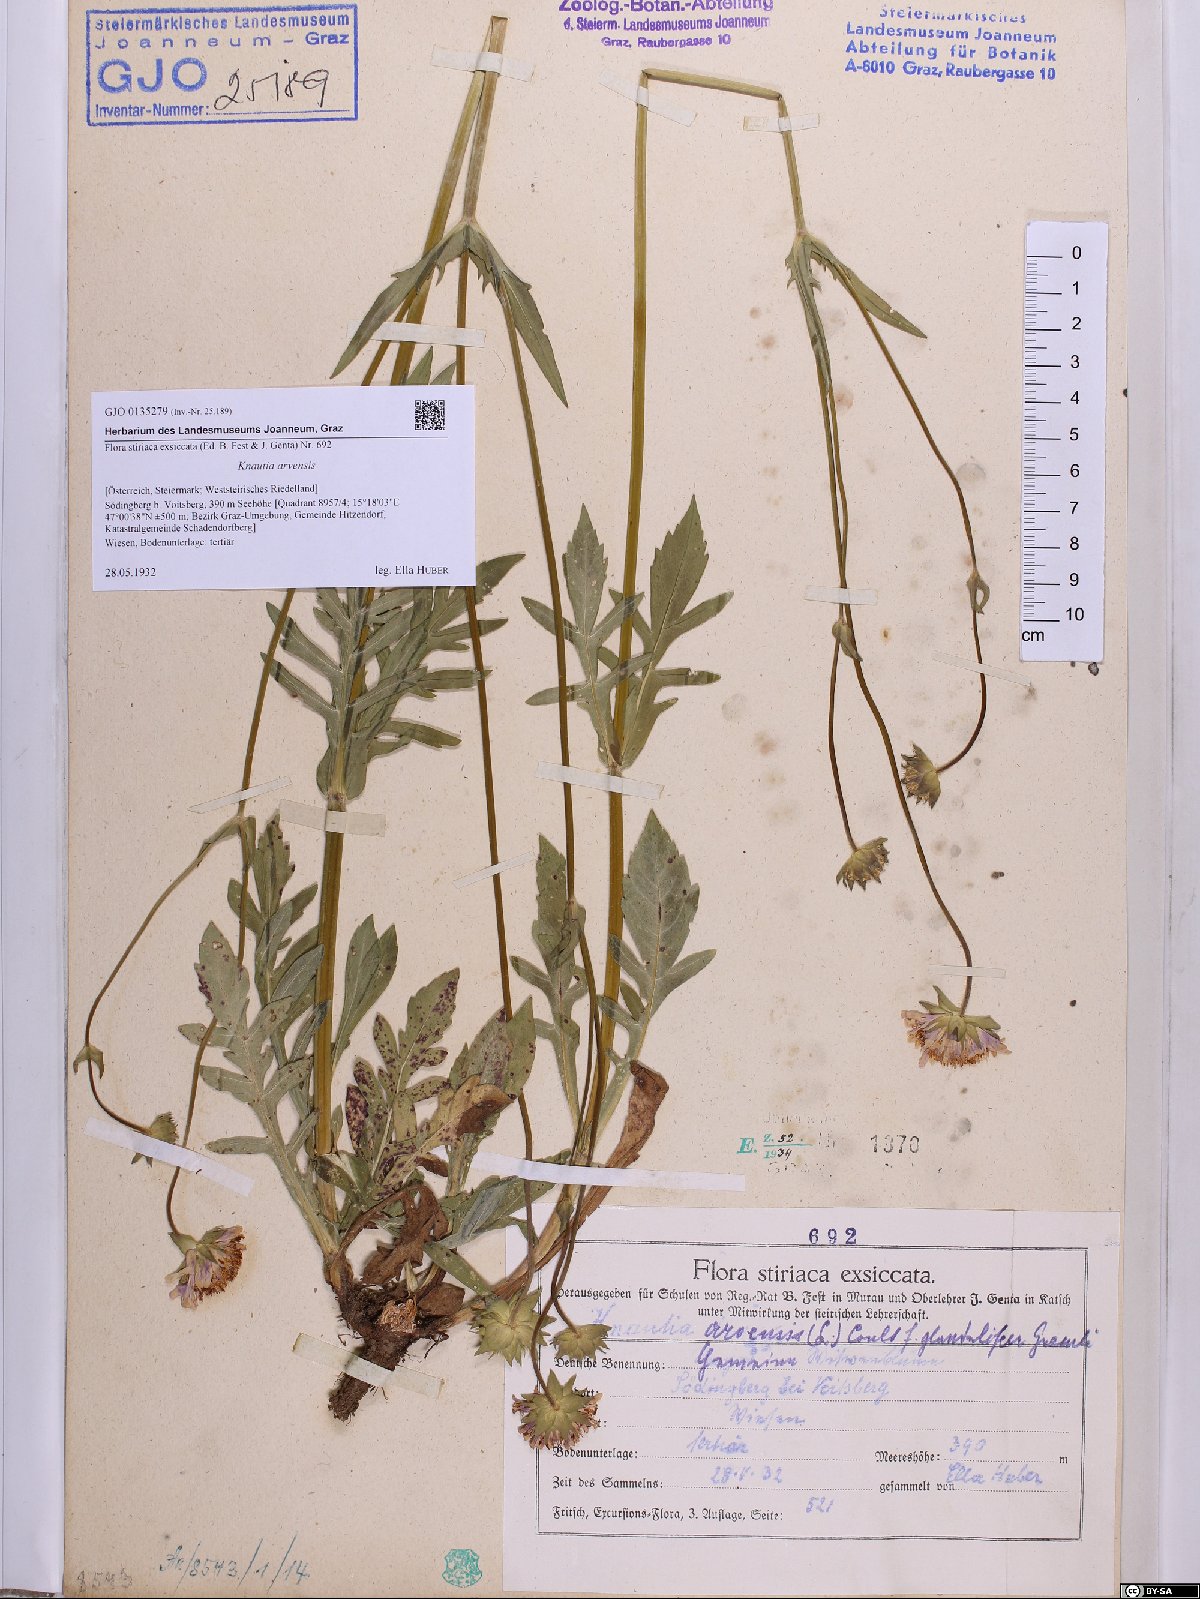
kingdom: Plantae
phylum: Tracheophyta
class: Magnoliopsida
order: Dipsacales
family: Caprifoliaceae
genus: Knautia
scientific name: Knautia arvensis
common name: Field scabiosa
